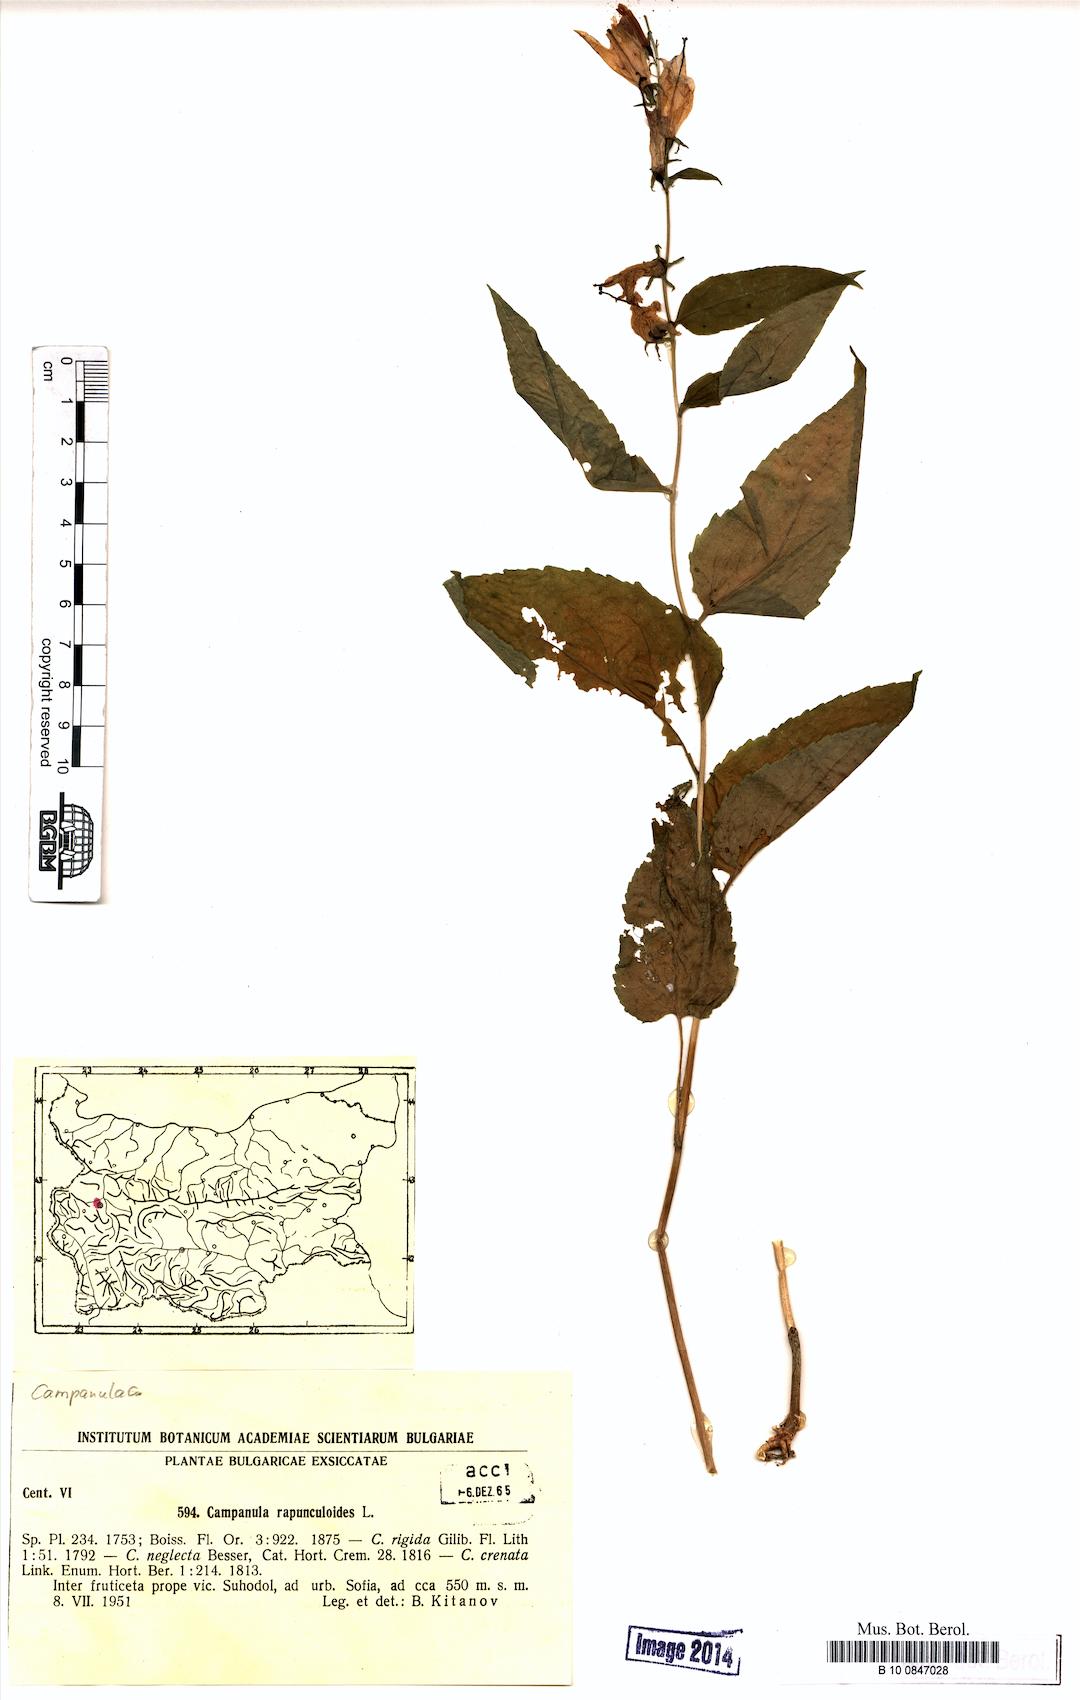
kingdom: Plantae
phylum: Tracheophyta
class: Magnoliopsida
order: Asterales
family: Campanulaceae
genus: Campanula
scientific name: Campanula rapunculoides
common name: Creeping bellflower
